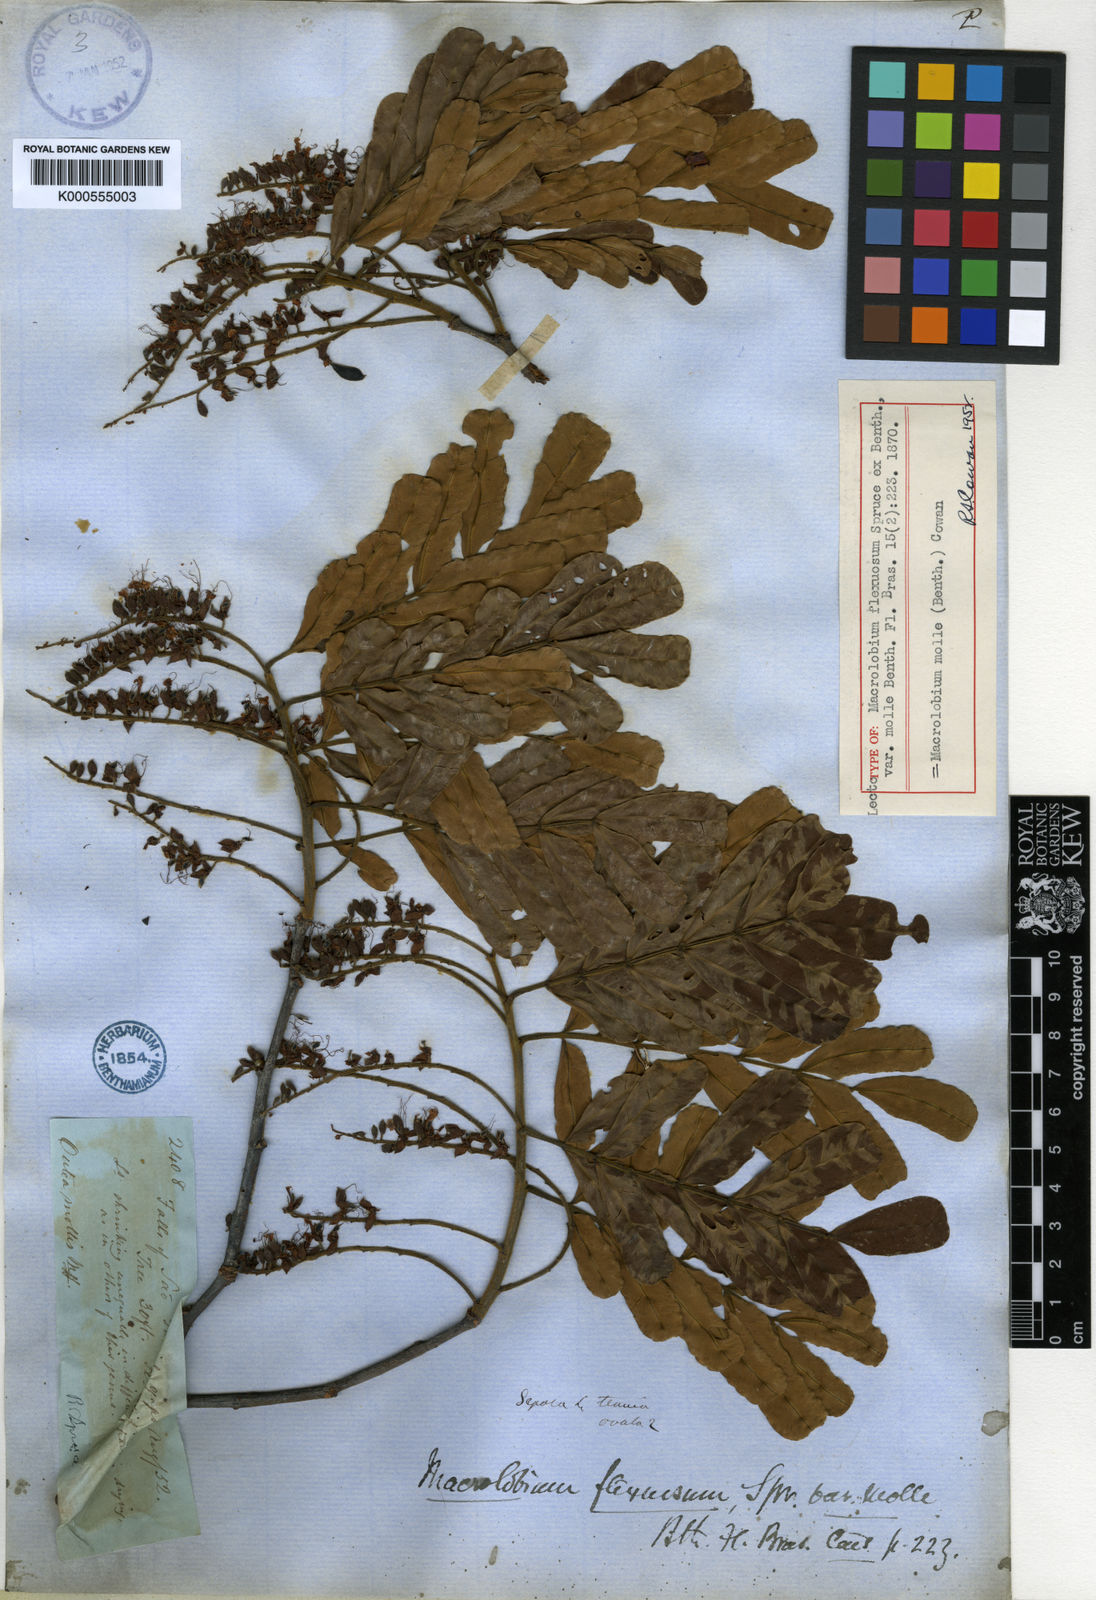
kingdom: Plantae
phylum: Tracheophyta
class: Magnoliopsida
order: Fabales
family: Fabaceae
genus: Macrolobium
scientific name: Macrolobium molle
